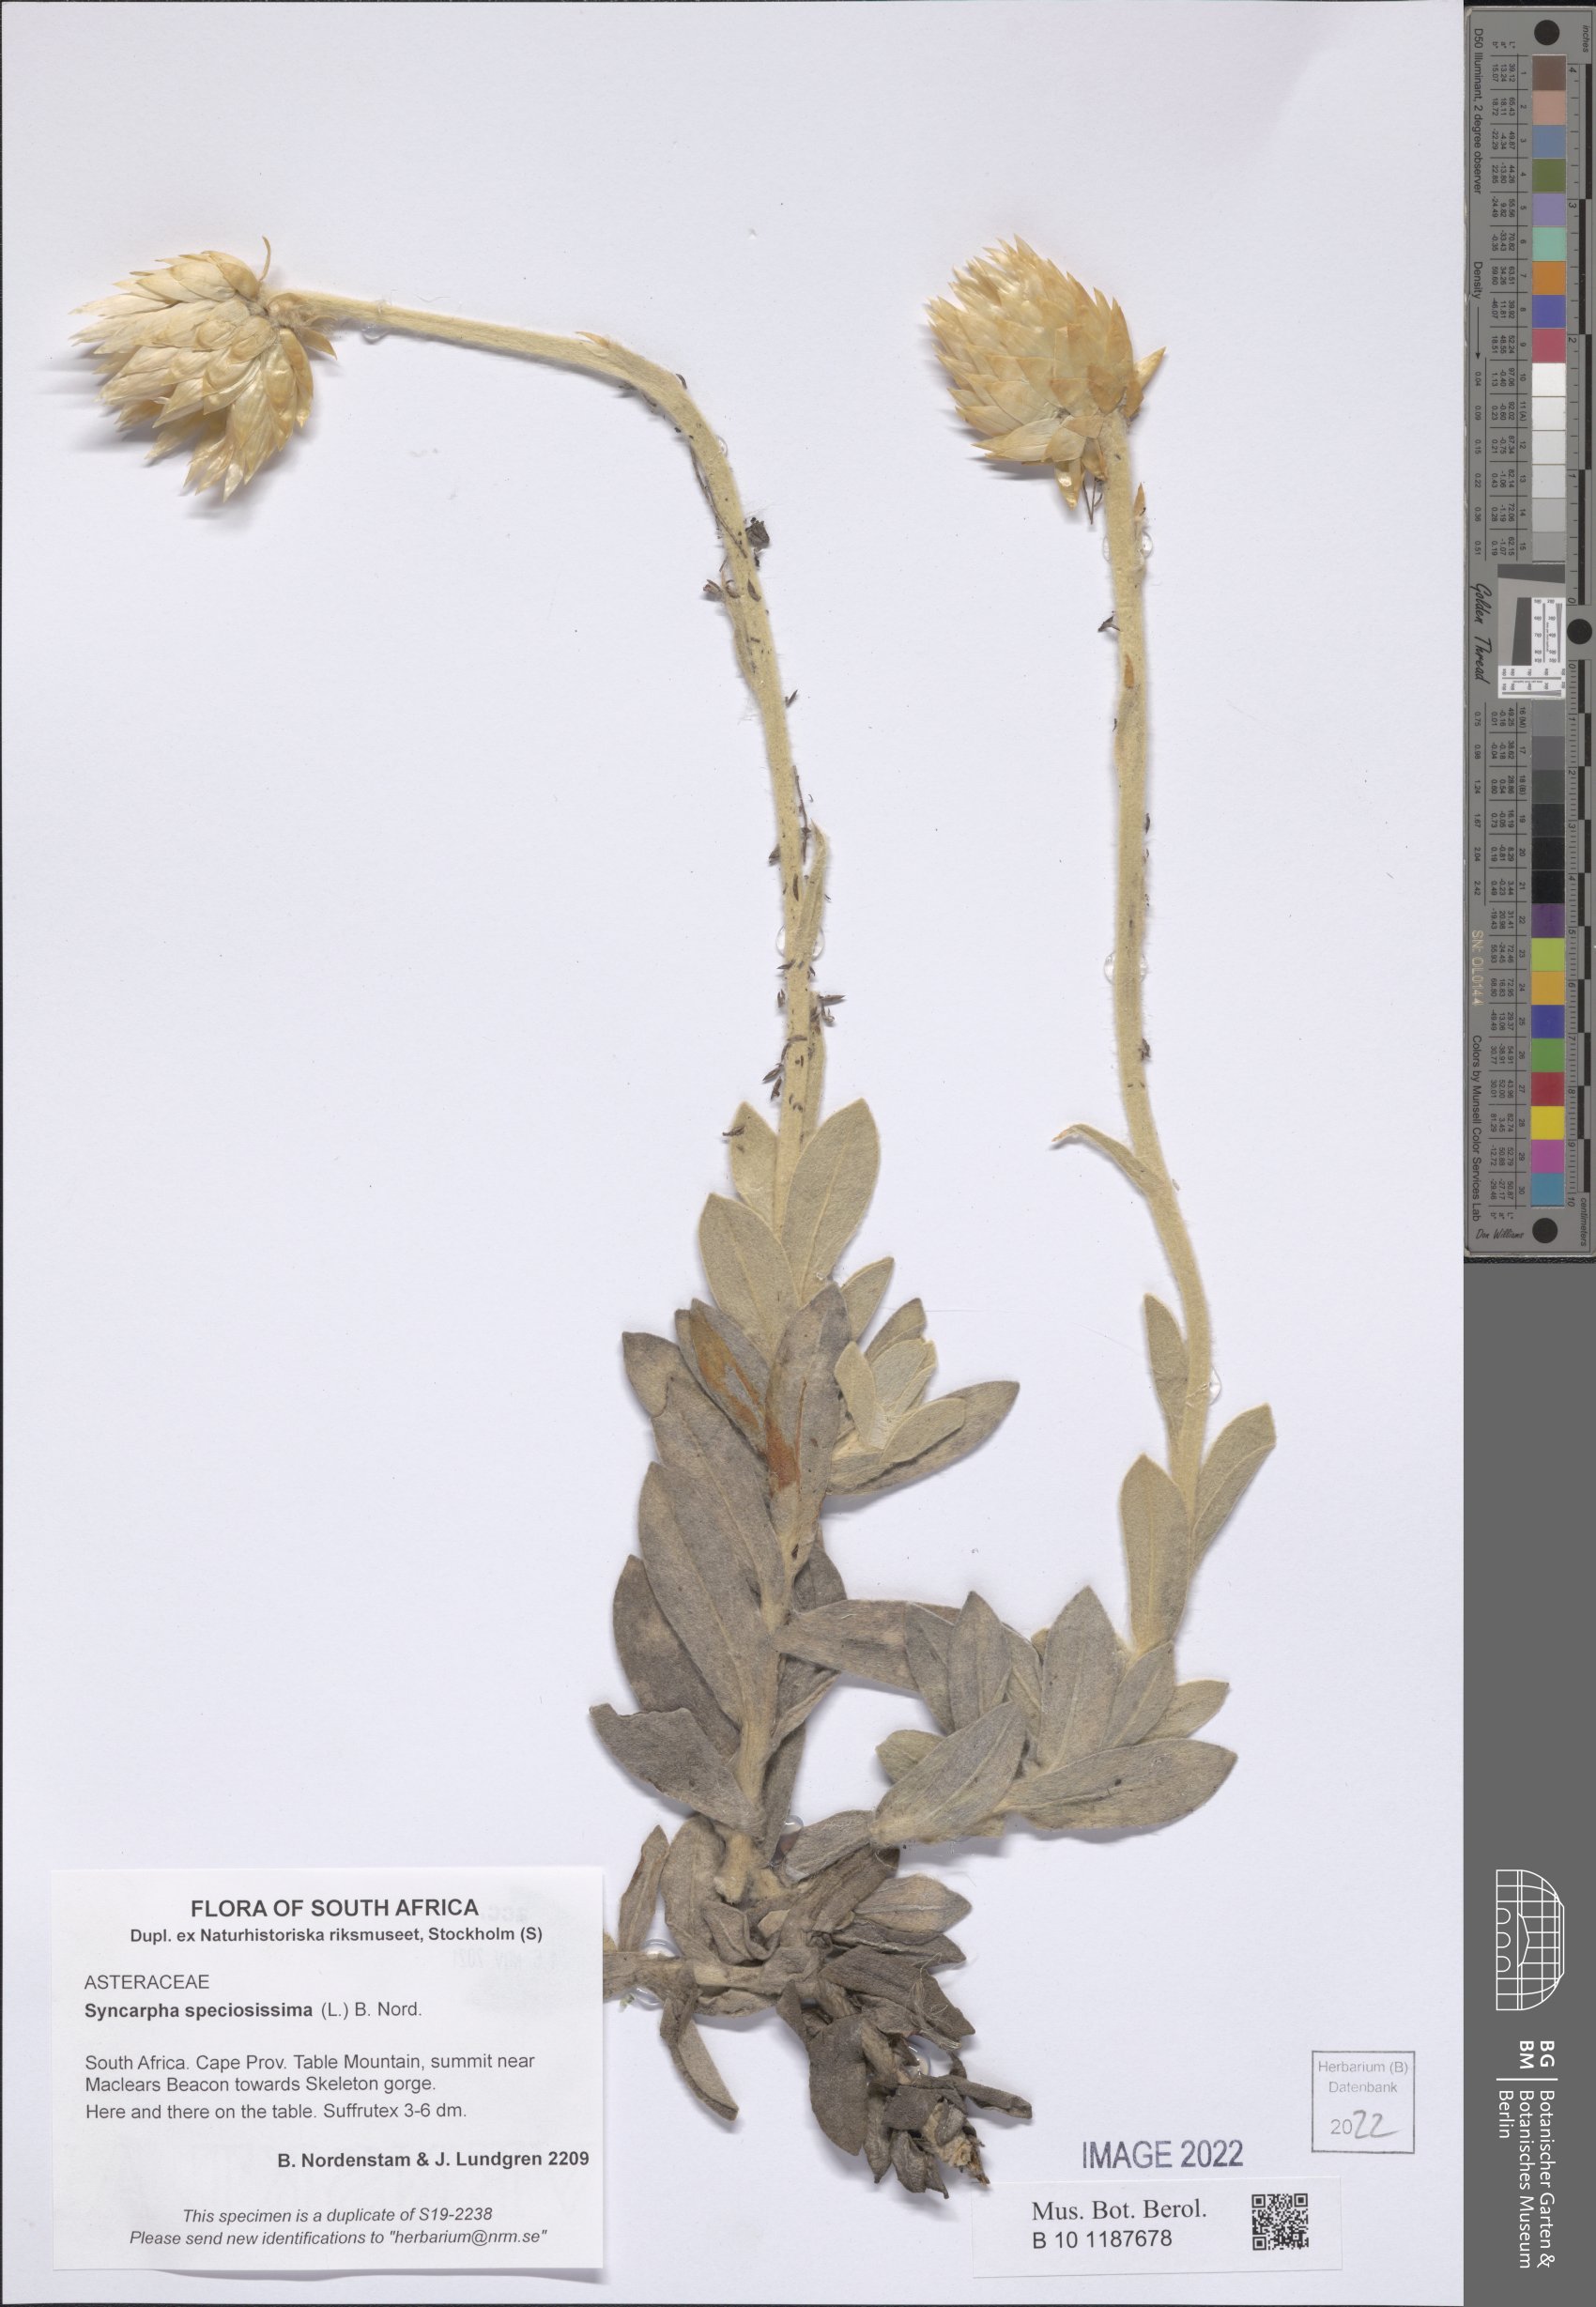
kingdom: Plantae
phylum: Tracheophyta
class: Magnoliopsida
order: Asterales
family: Asteraceae
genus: Syncarpha
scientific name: Syncarpha speciosissima
